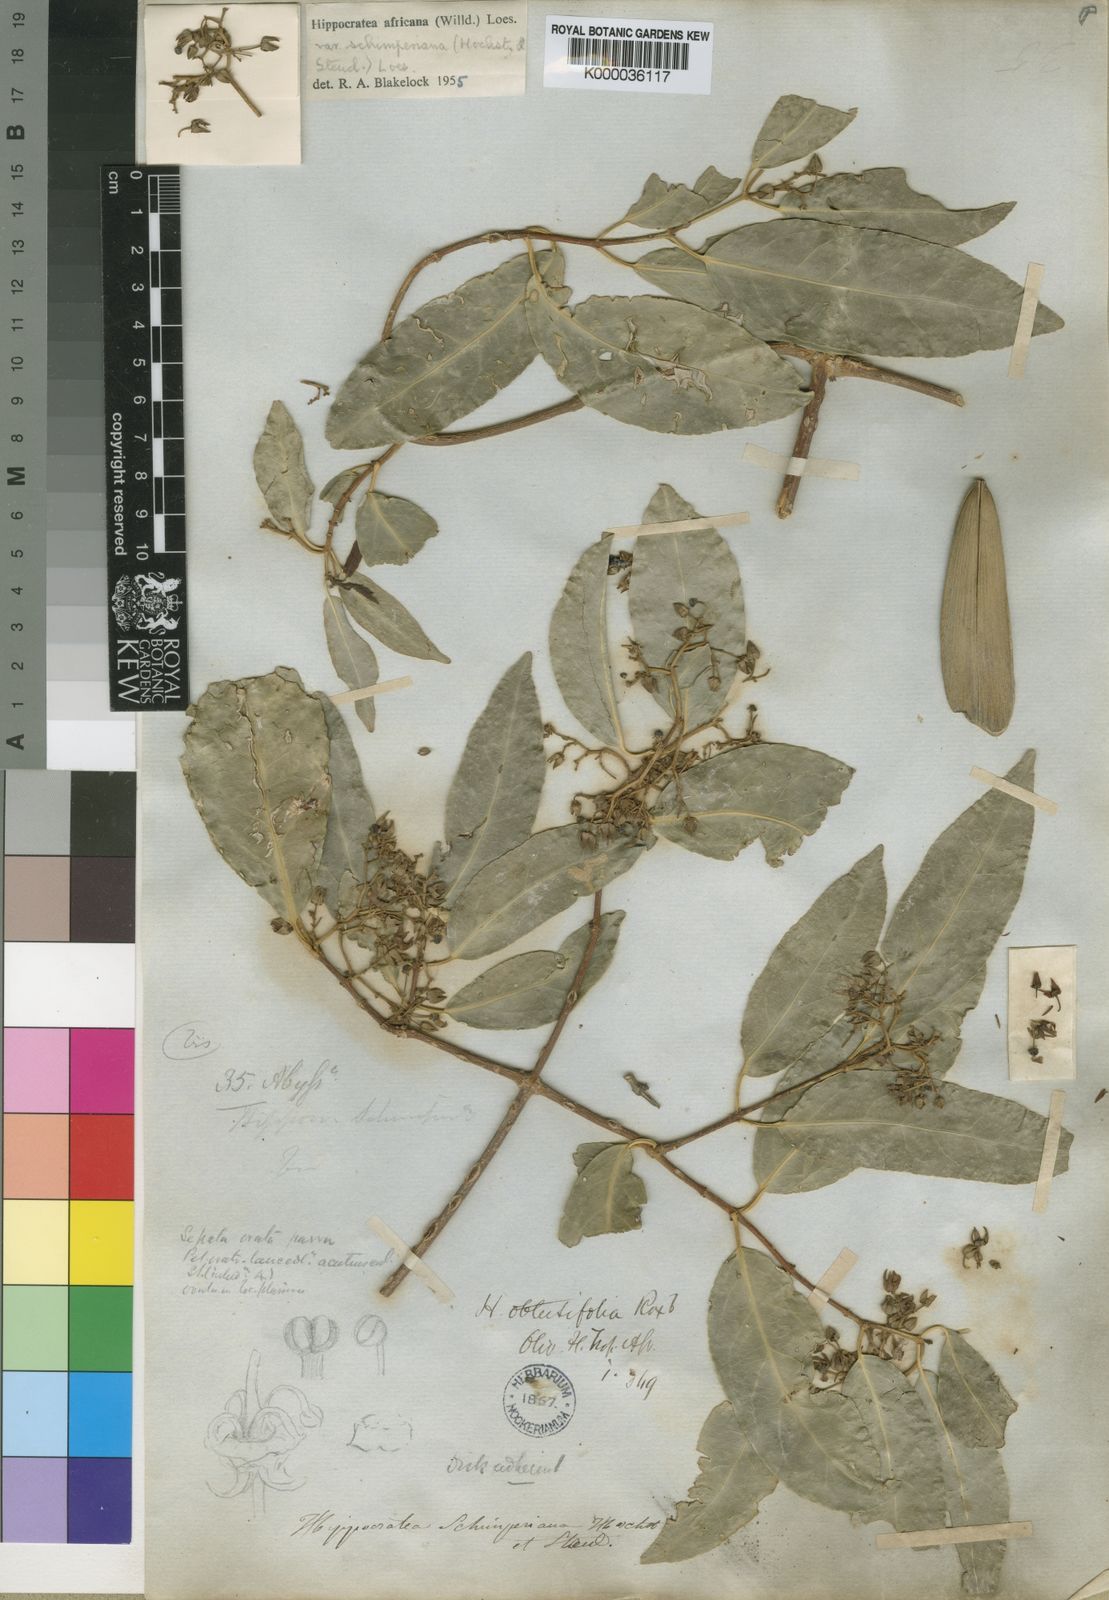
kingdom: Plantae
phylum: Tracheophyta
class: Magnoliopsida
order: Celastrales
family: Celastraceae
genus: Loeseneriella
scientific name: Loeseneriella
